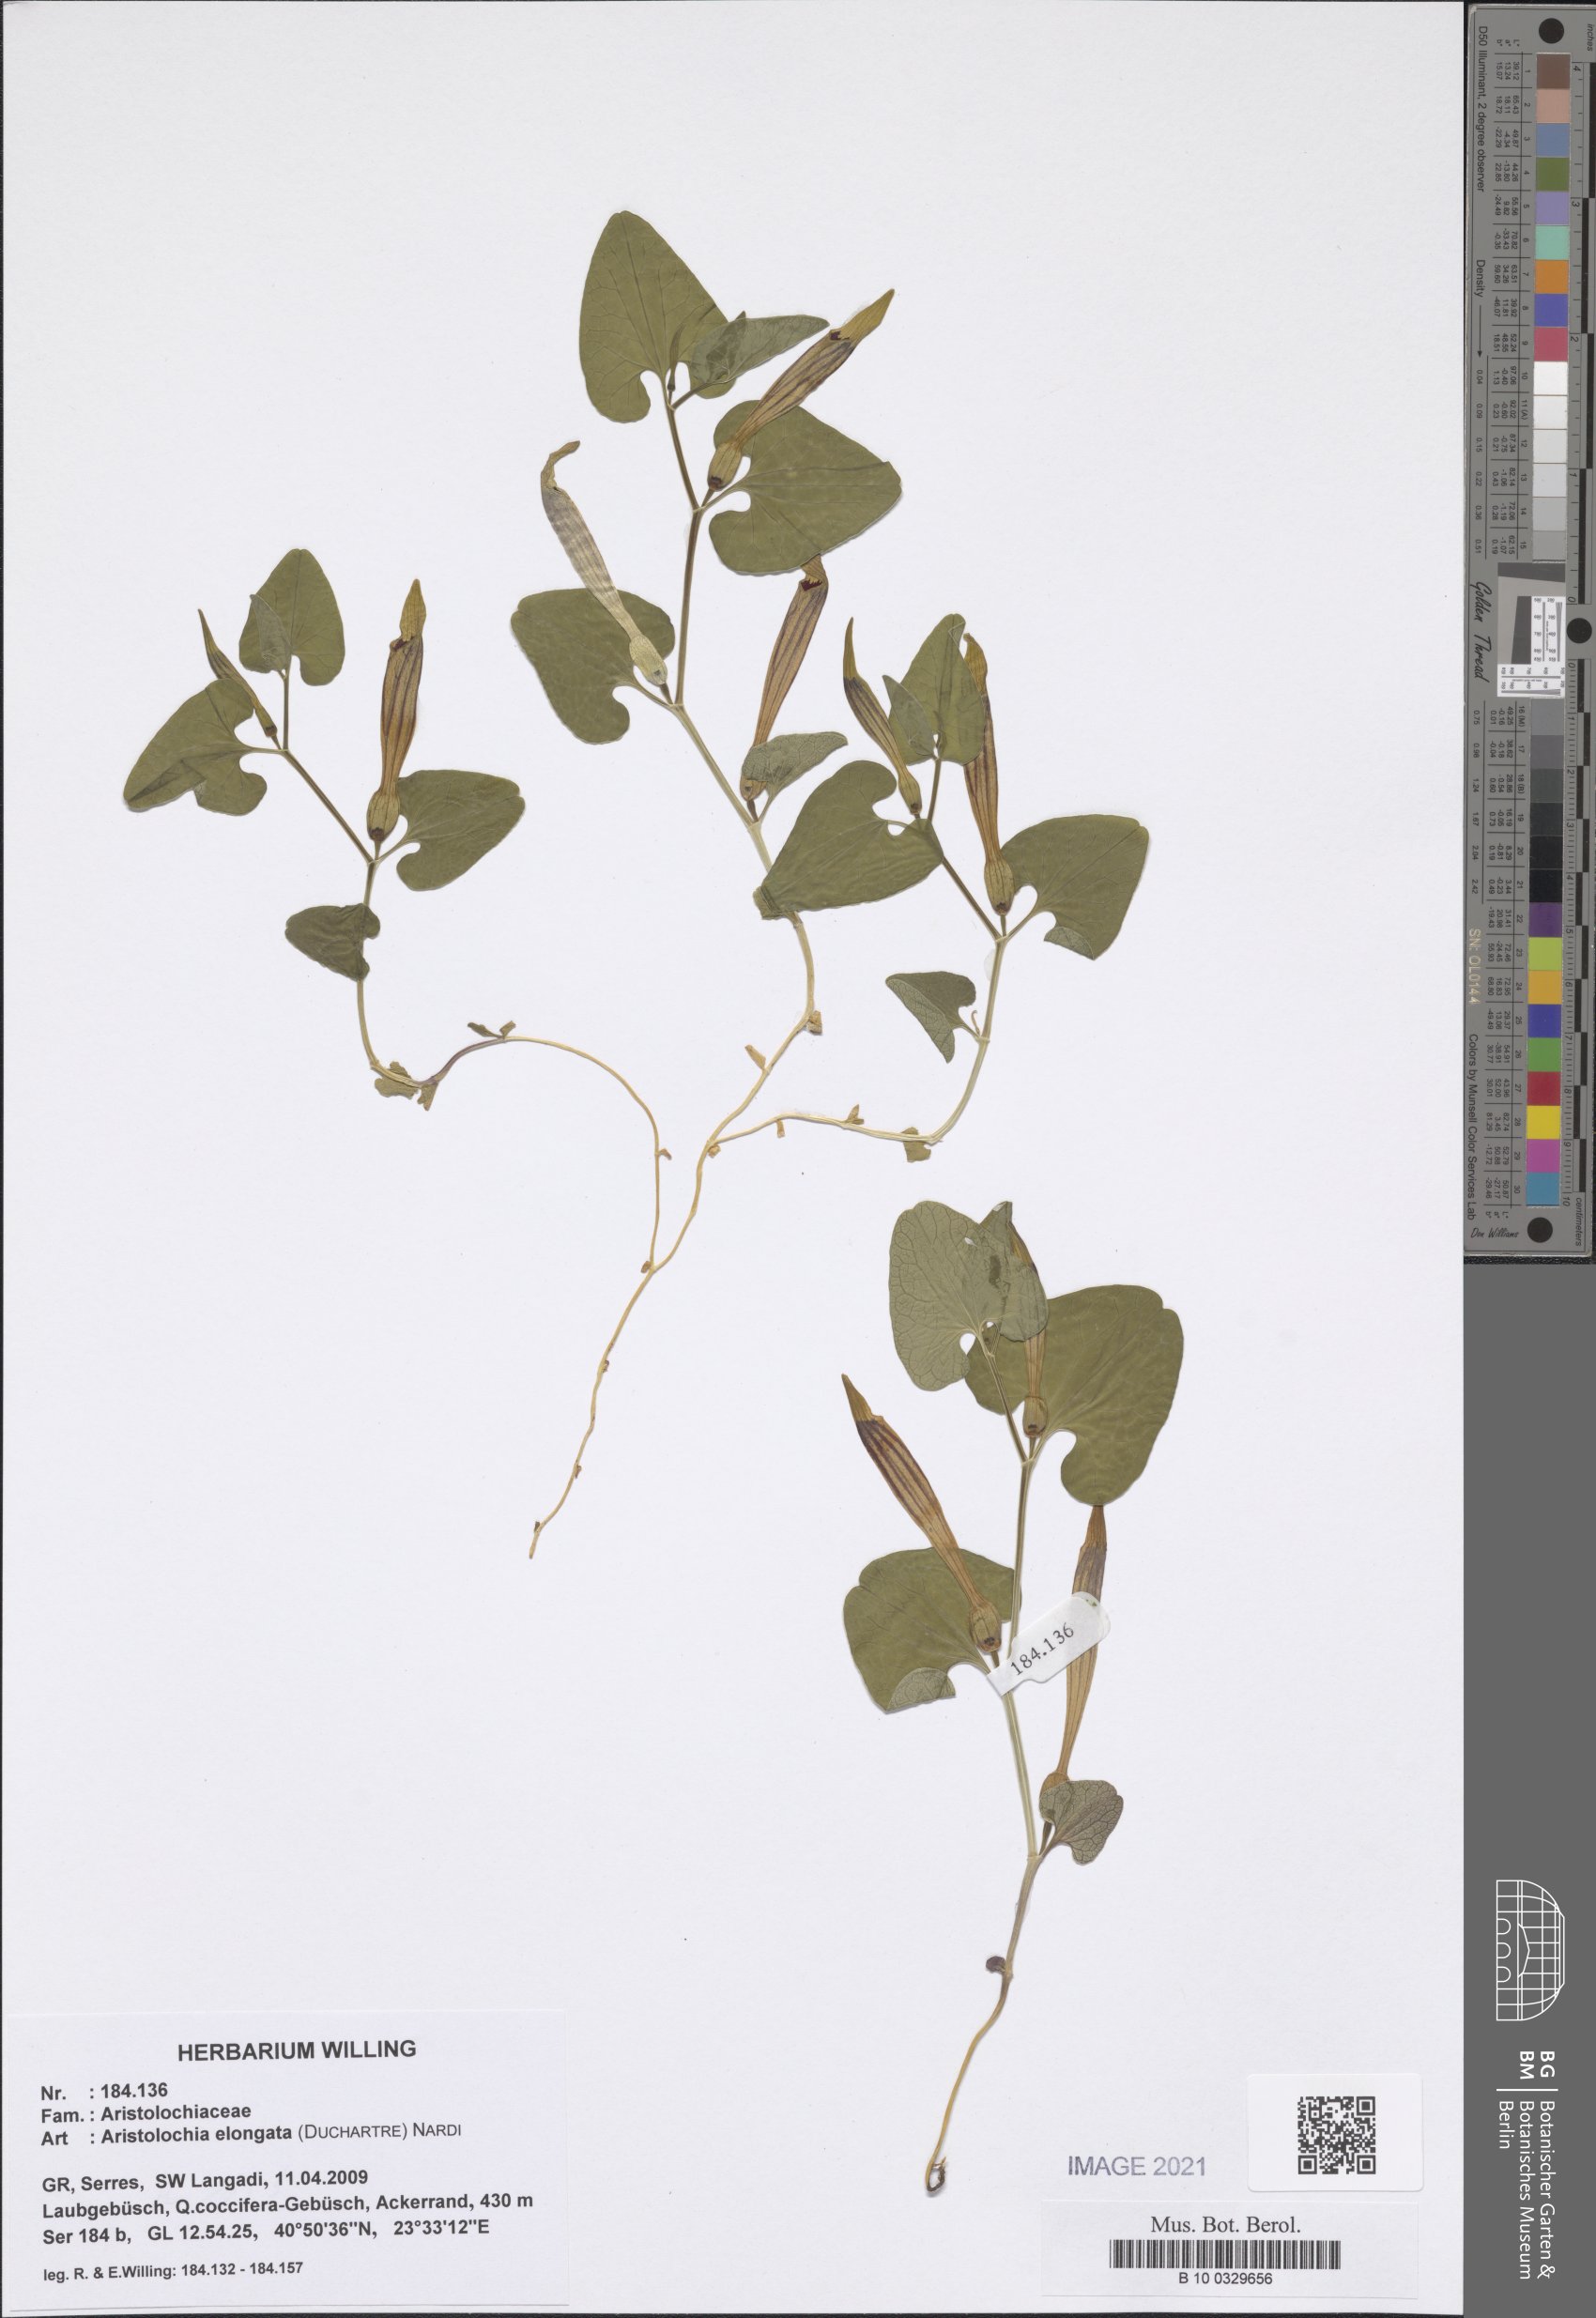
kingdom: Plantae
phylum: Tracheophyta
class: Magnoliopsida
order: Piperales
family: Aristolochiaceae
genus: Aristolochia
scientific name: Aristolochia nardiana
